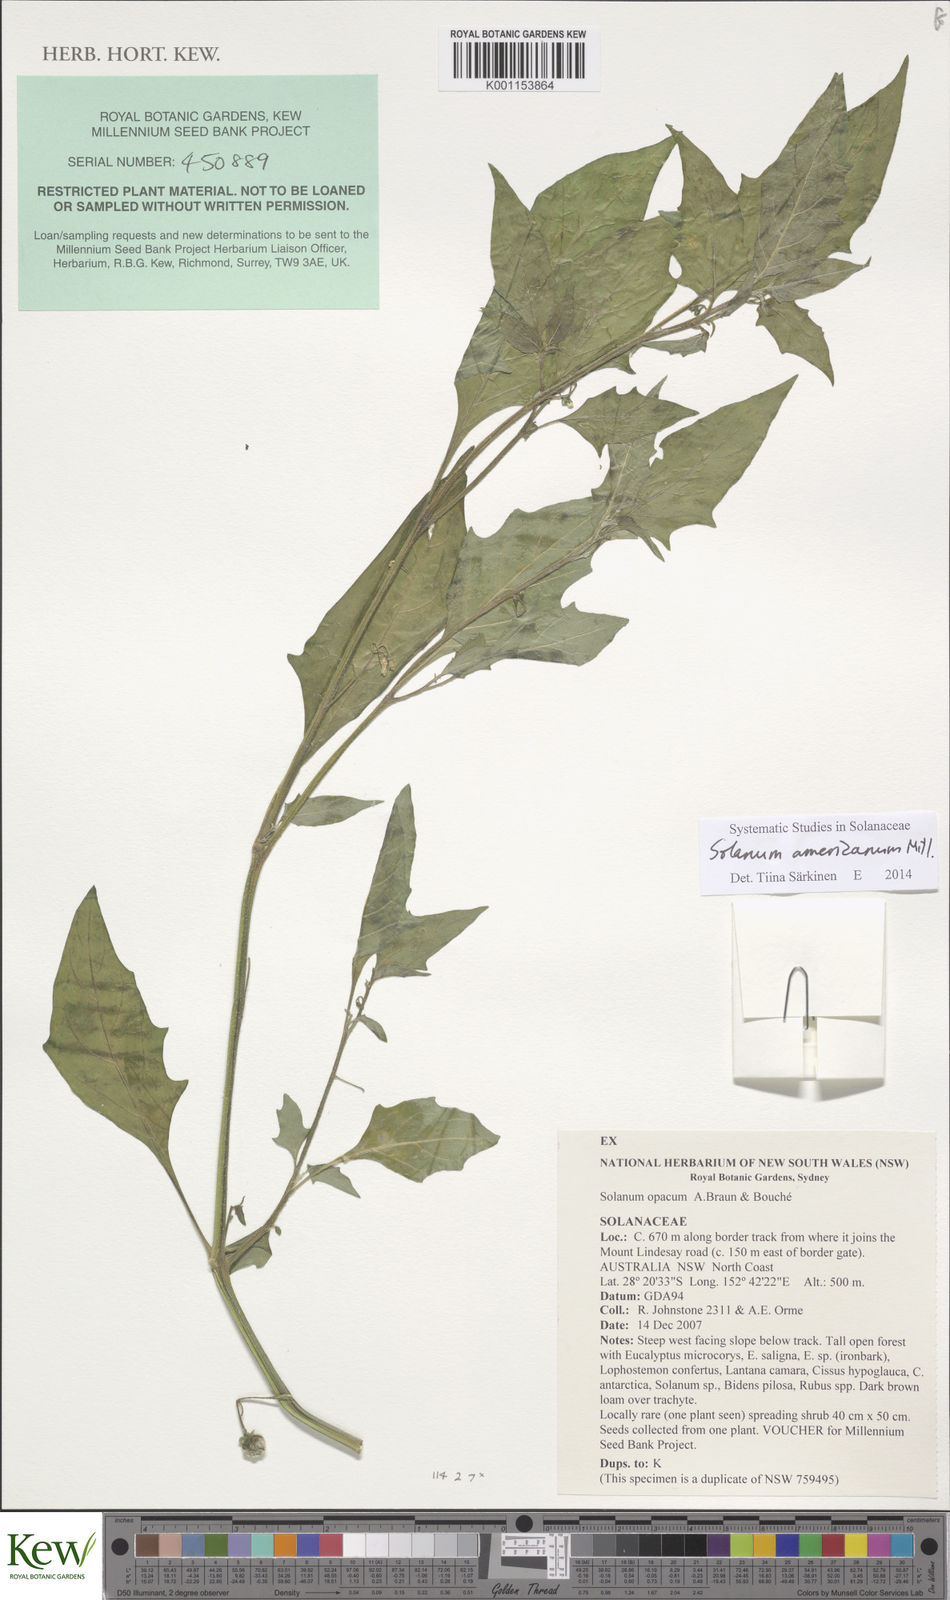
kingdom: Plantae
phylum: Tracheophyta
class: Magnoliopsida
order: Solanales
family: Solanaceae
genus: Solanum
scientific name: Solanum americanum
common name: American black nightshade
